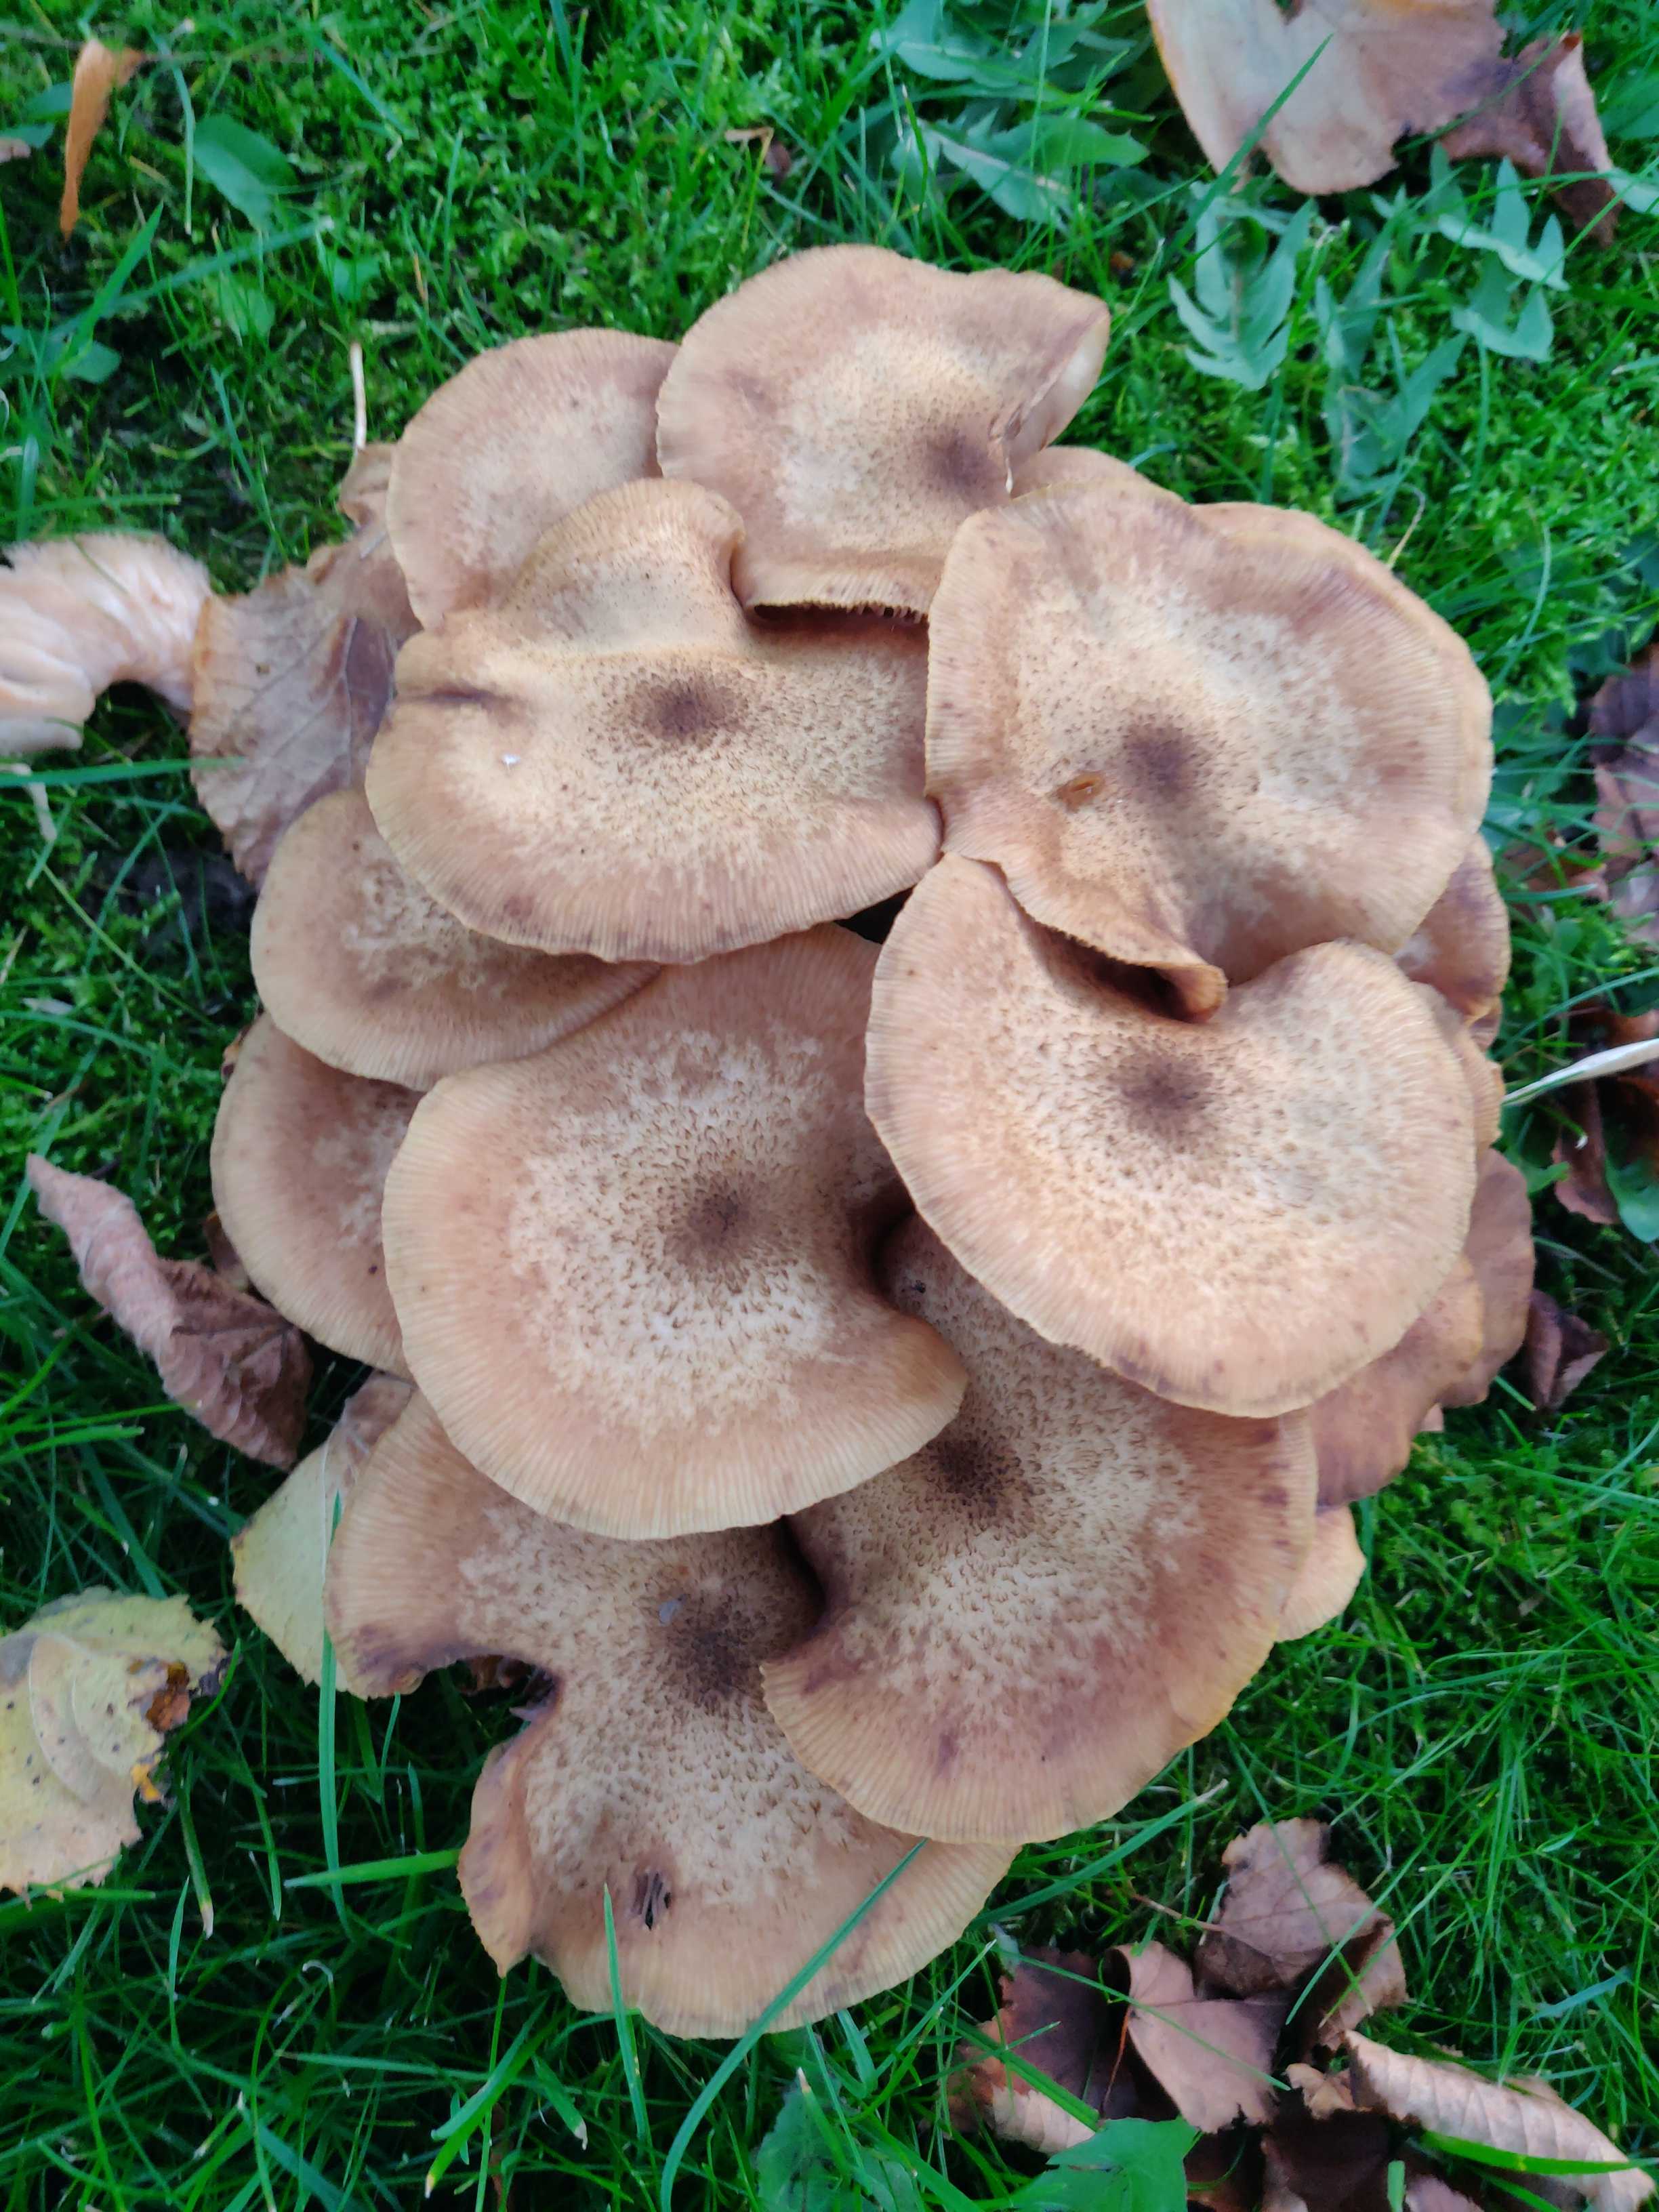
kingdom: Fungi
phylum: Basidiomycota
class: Agaricomycetes
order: Agaricales
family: Physalacriaceae
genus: Armillaria
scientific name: Armillaria
